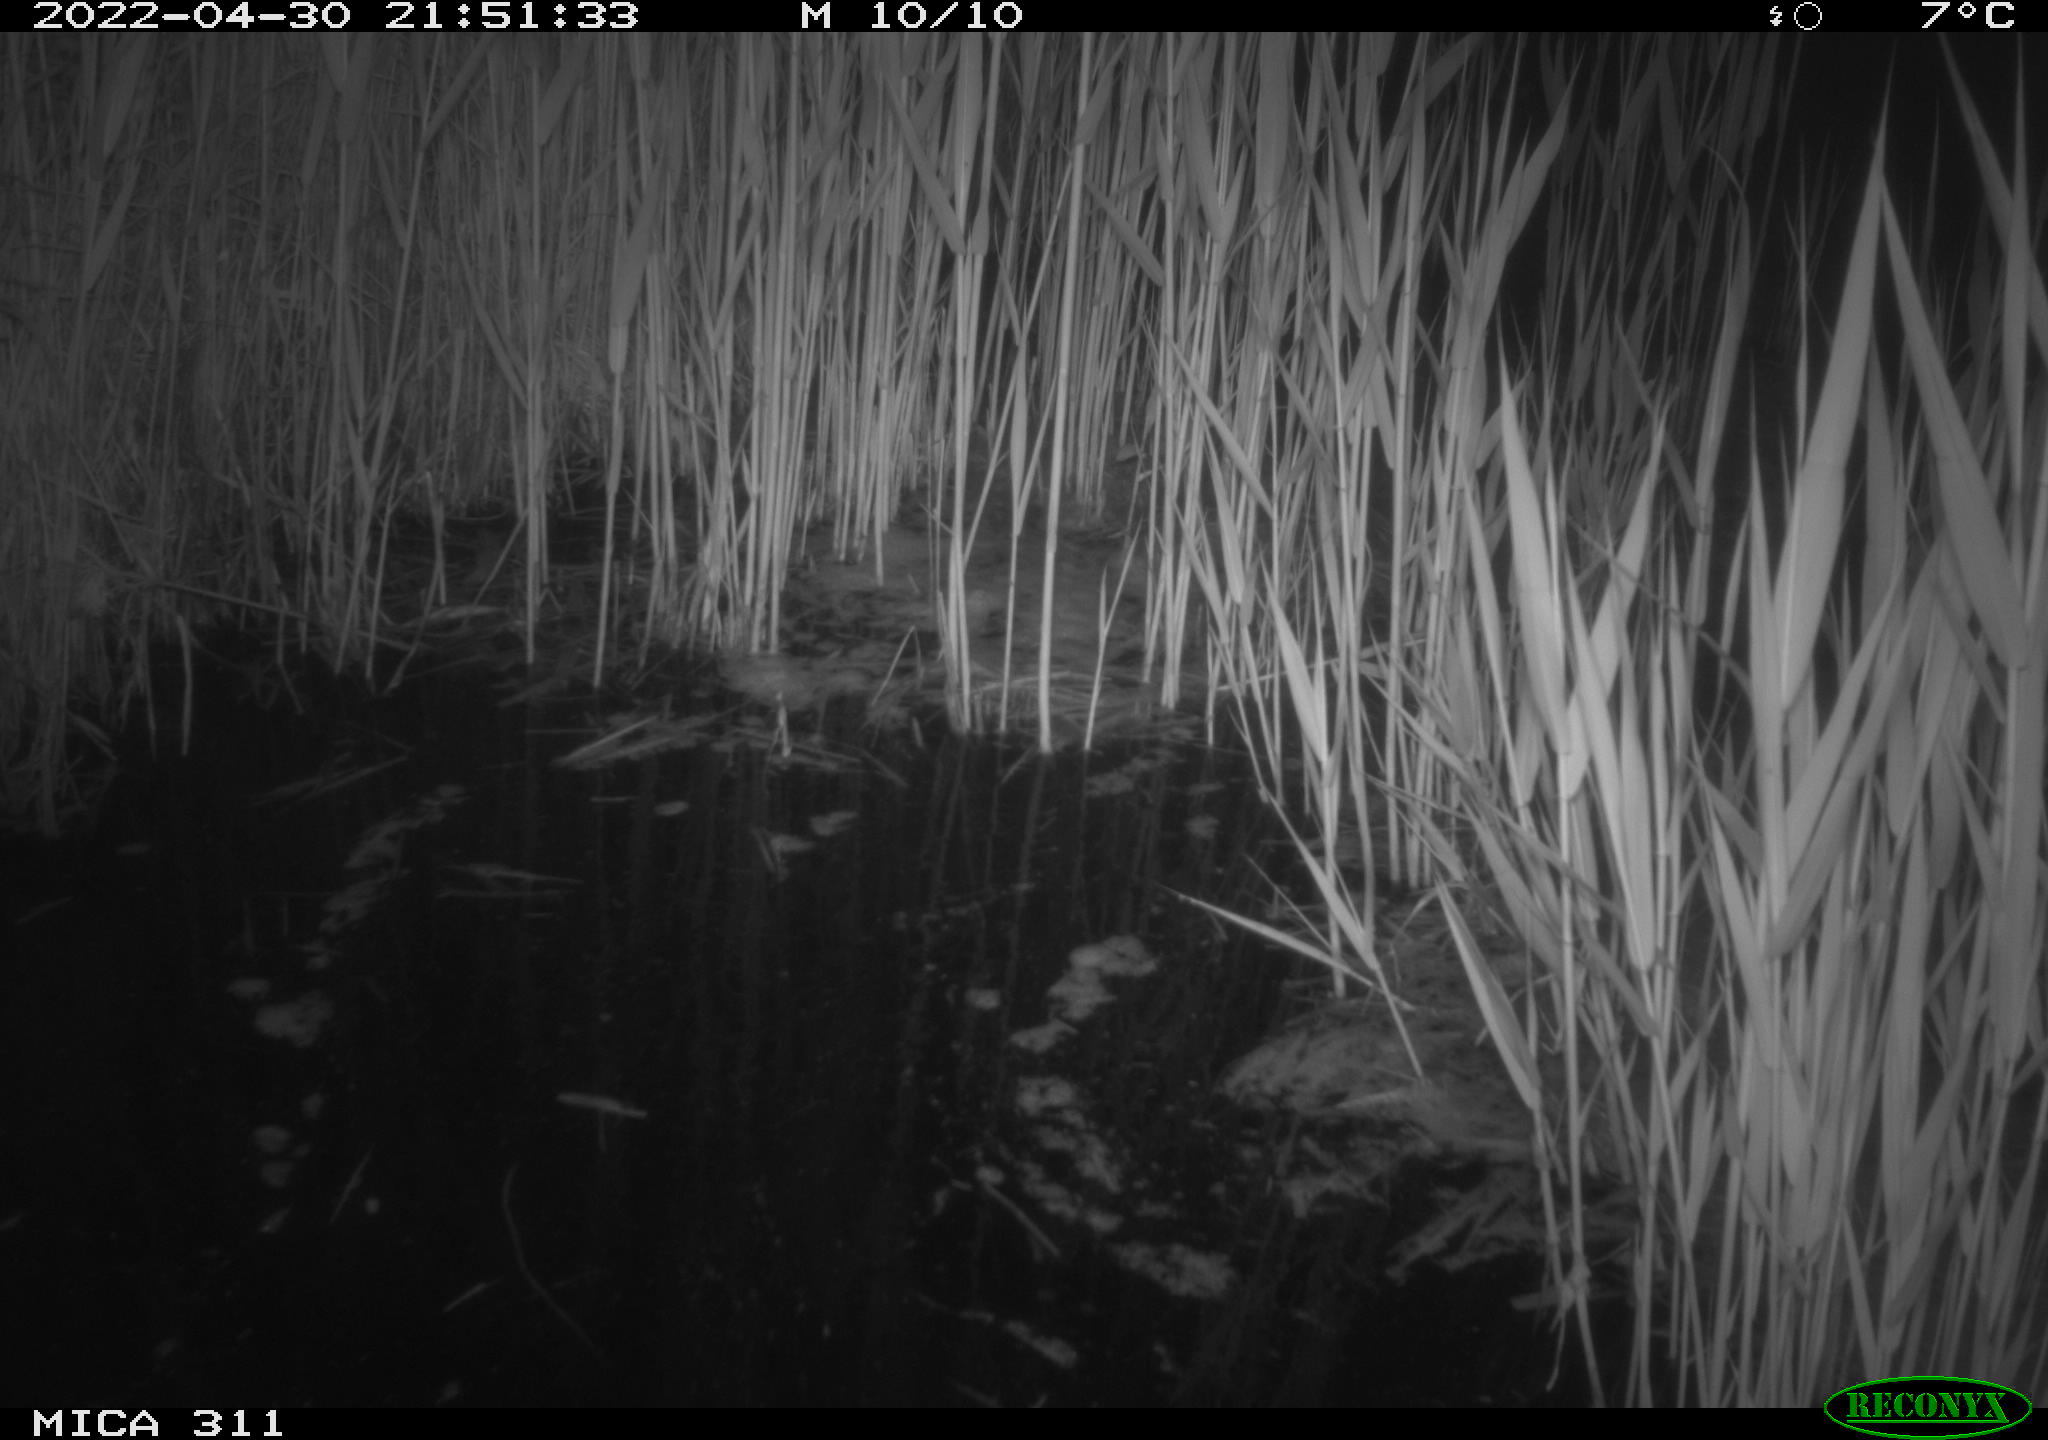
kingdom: Animalia
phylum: Chordata
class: Aves
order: Anseriformes
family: Anatidae
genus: Anas
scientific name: Anas platyrhynchos
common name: Mallard
